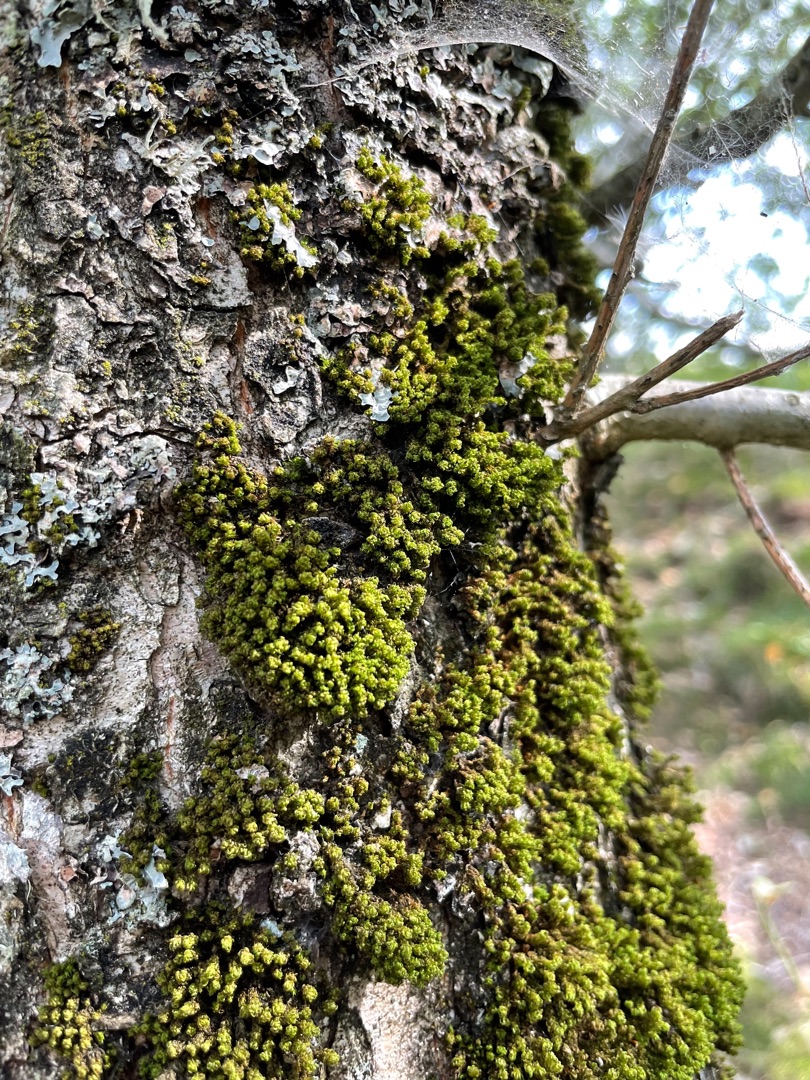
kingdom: Plantae
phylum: Bryophyta
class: Bryopsida
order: Orthotrichales
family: Orthotrichaceae
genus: Plenogemma
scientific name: Plenogemma phyllantha
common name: Stor låddenhætte
